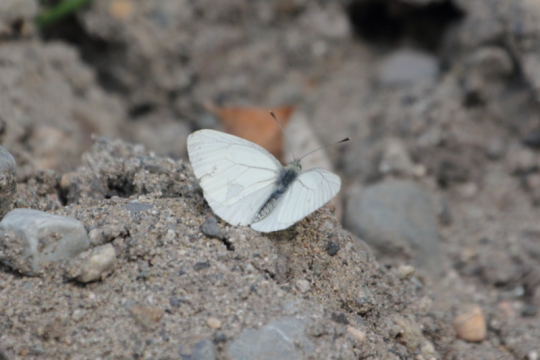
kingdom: Animalia
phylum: Arthropoda
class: Insecta
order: Lepidoptera
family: Pieridae
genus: Pieris
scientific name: Pieris marginalis
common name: Margined White
